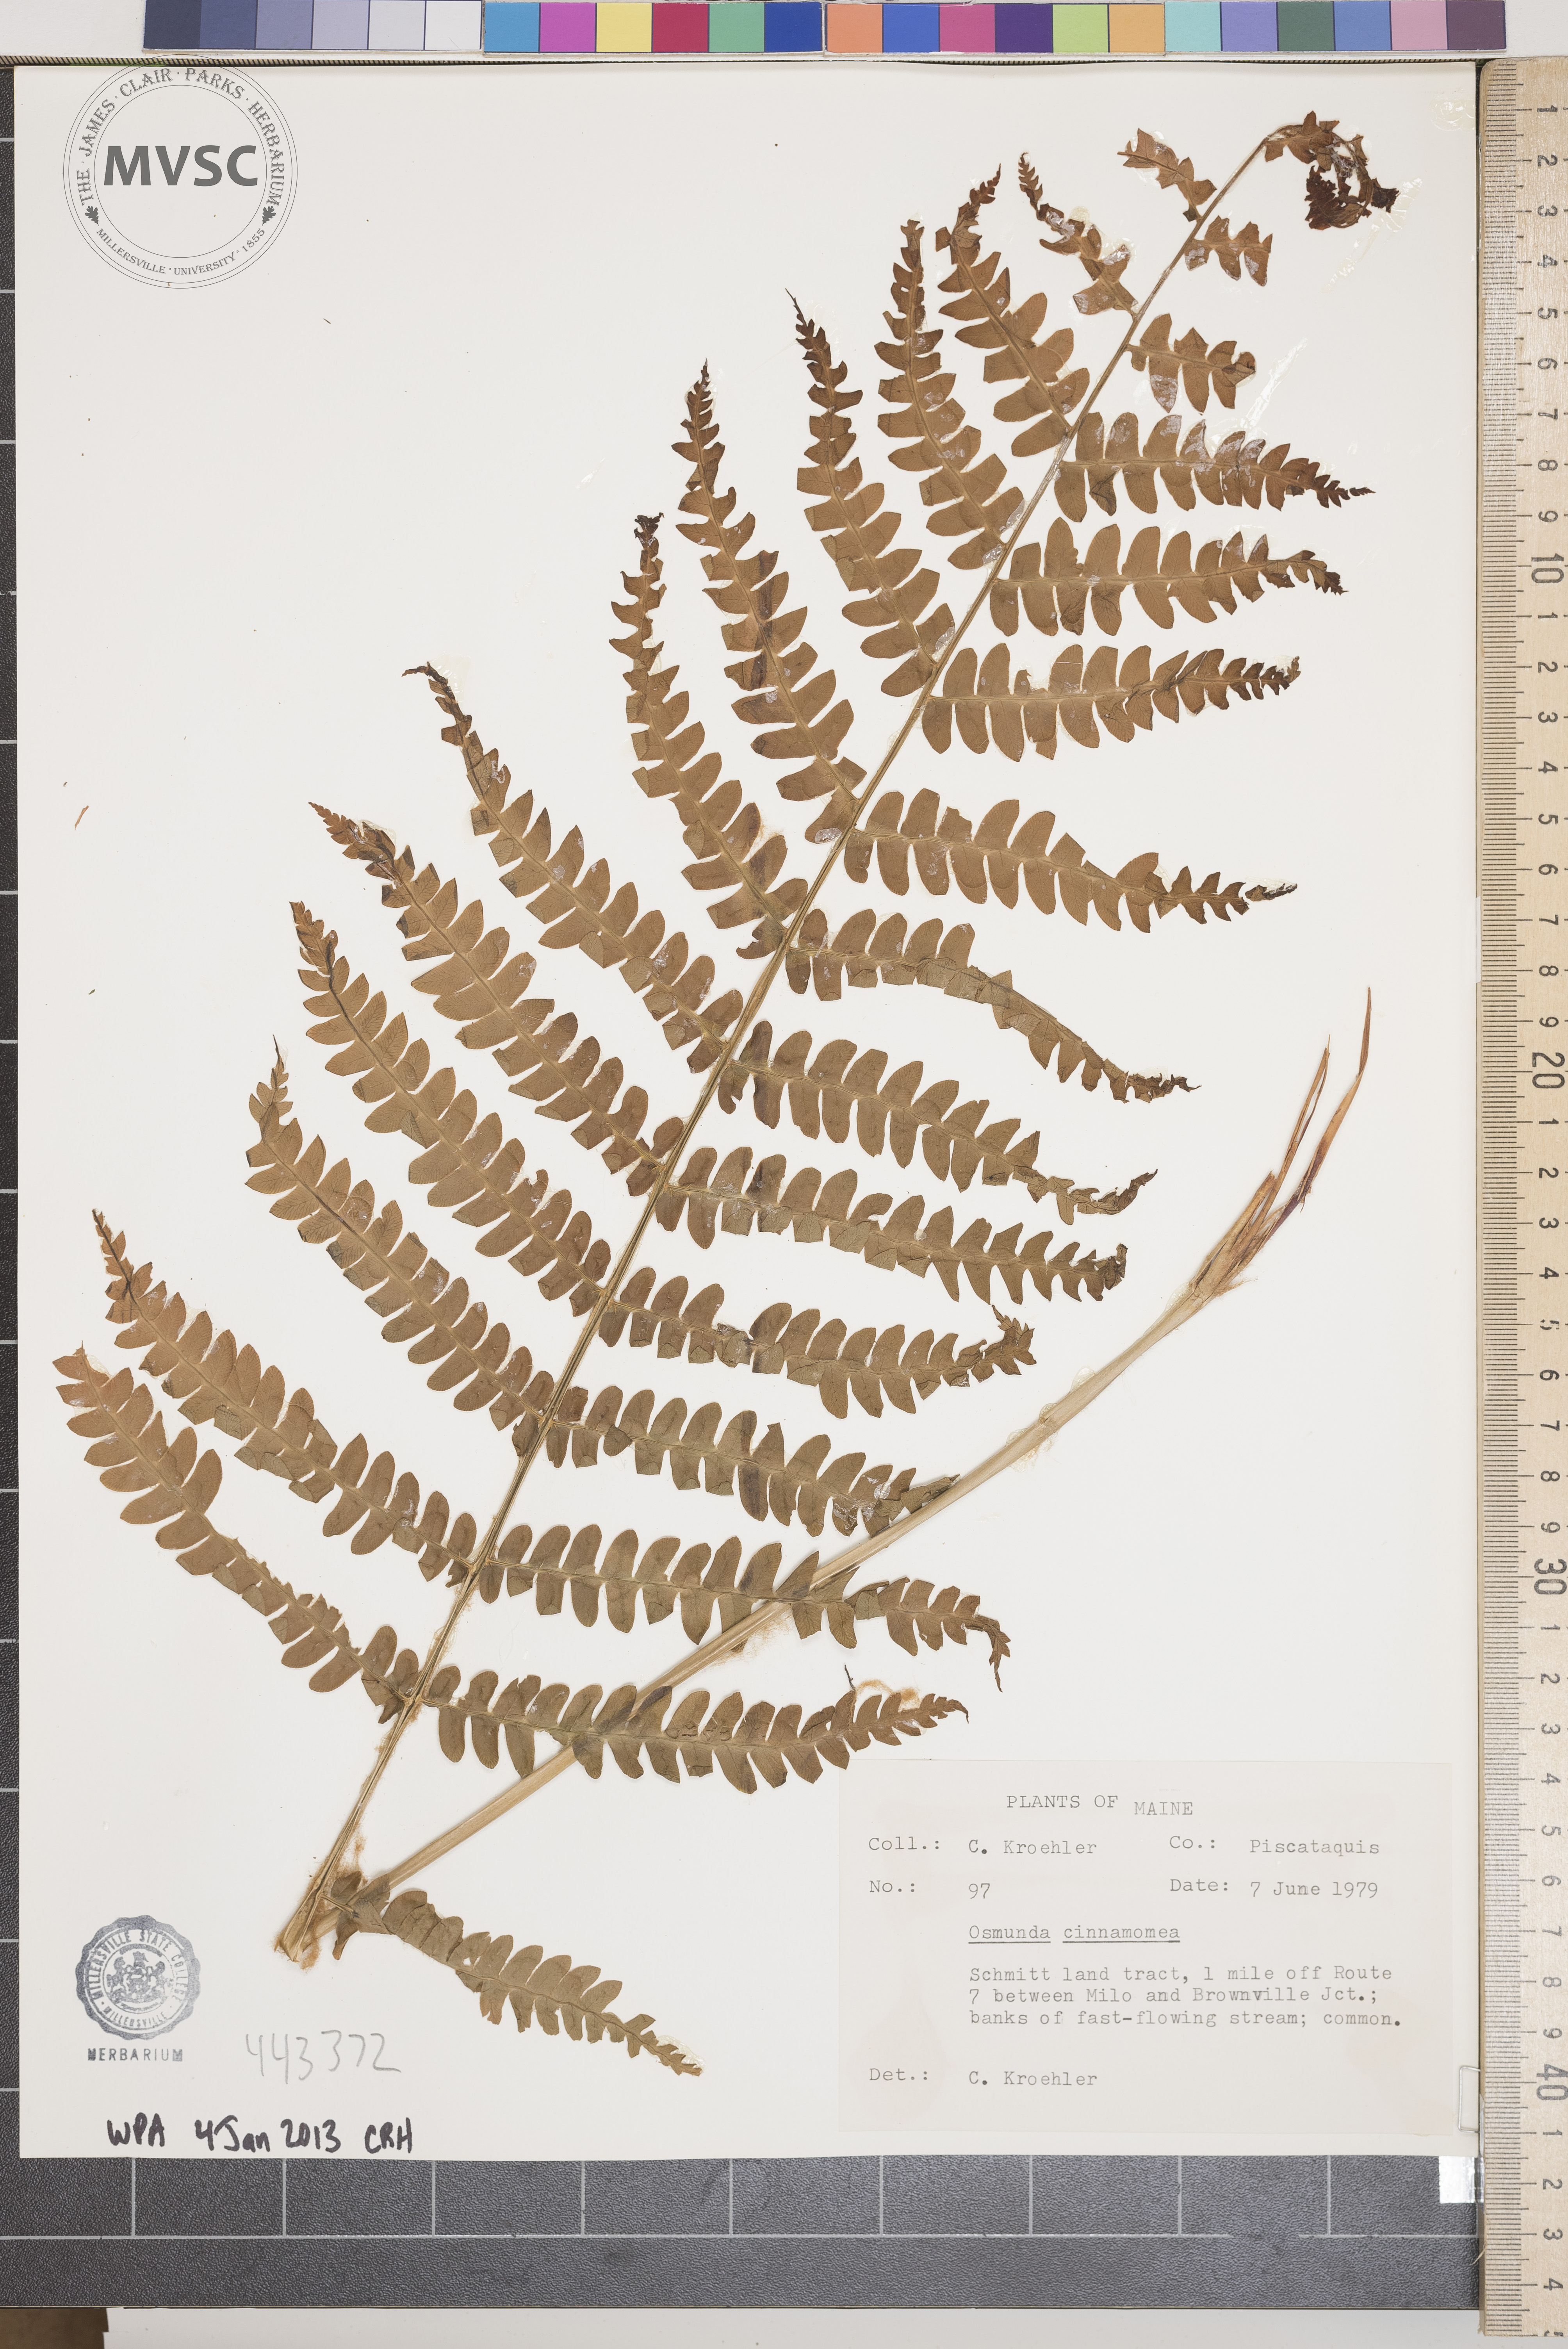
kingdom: Plantae
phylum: Tracheophyta
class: Polypodiopsida
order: Osmundales
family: Osmundaceae
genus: Osmundastrum
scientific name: Osmundastrum cinnamomeum
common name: Cinnamon fern
